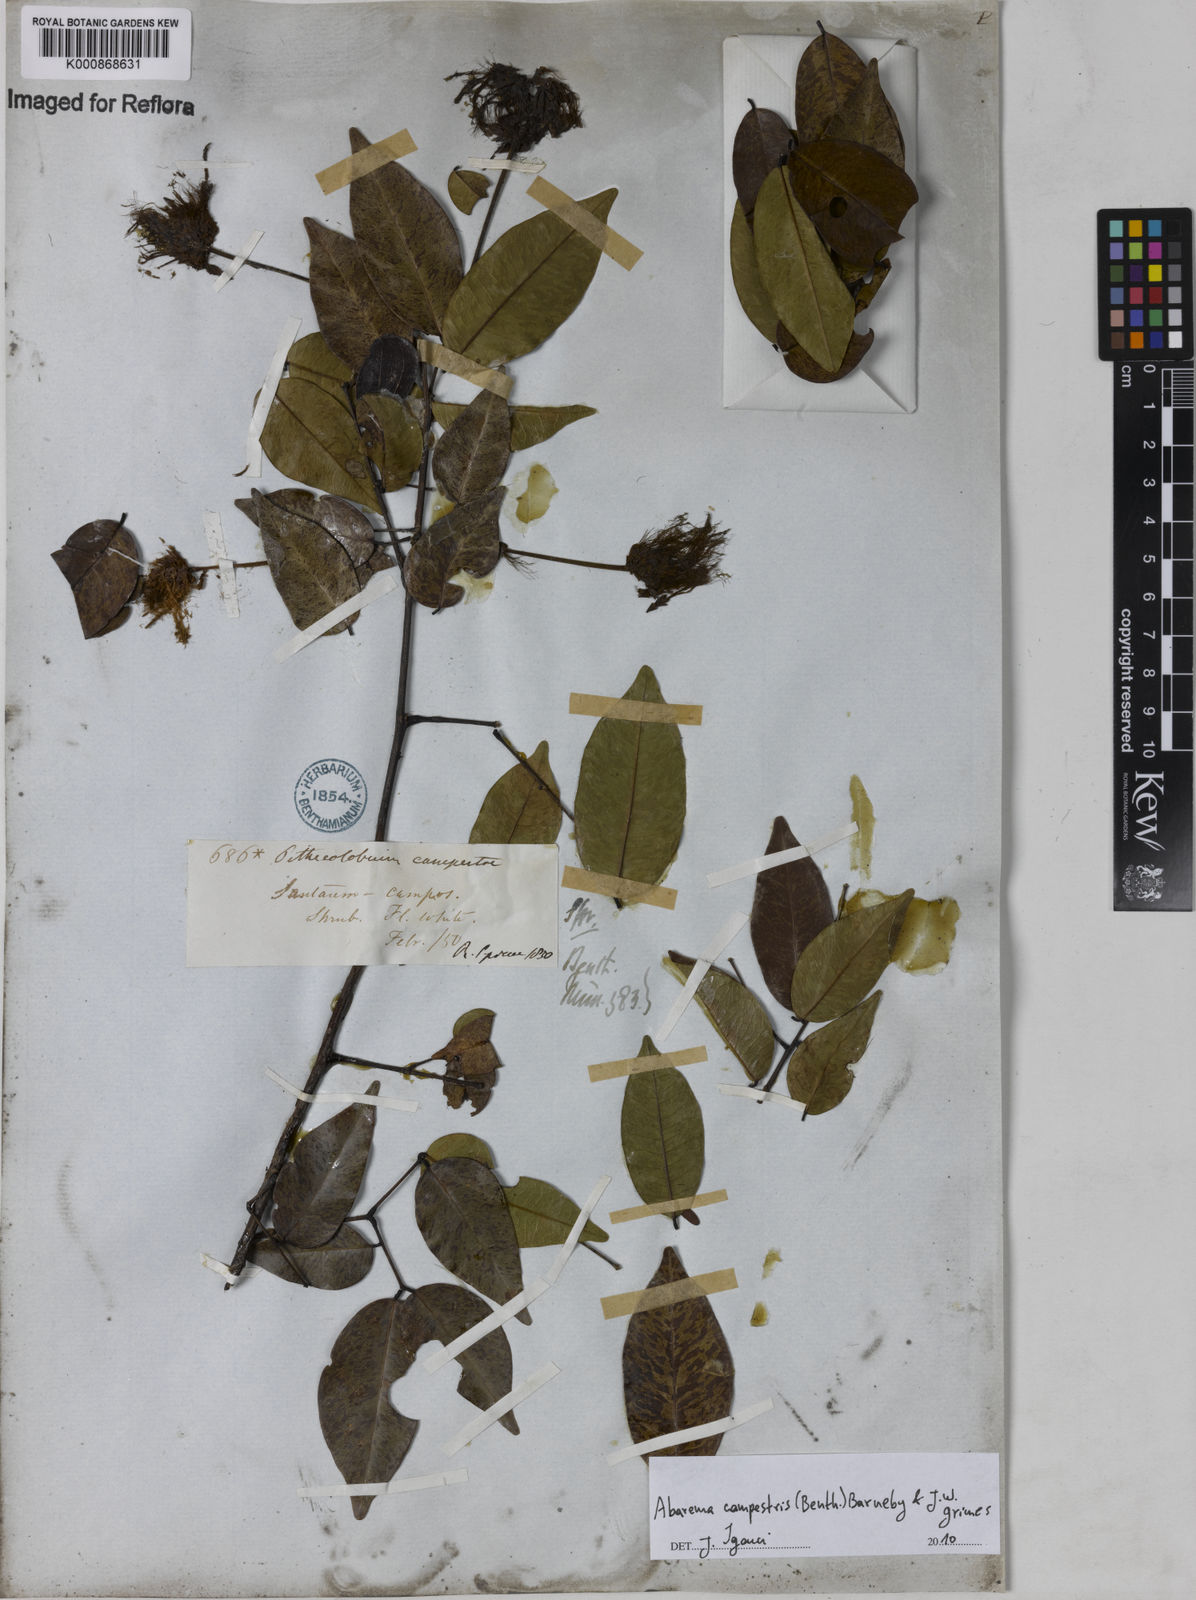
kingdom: Plantae
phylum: Tracheophyta
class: Magnoliopsida
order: Fabales
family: Fabaceae
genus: Jupunba
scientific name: Jupunba campestris
